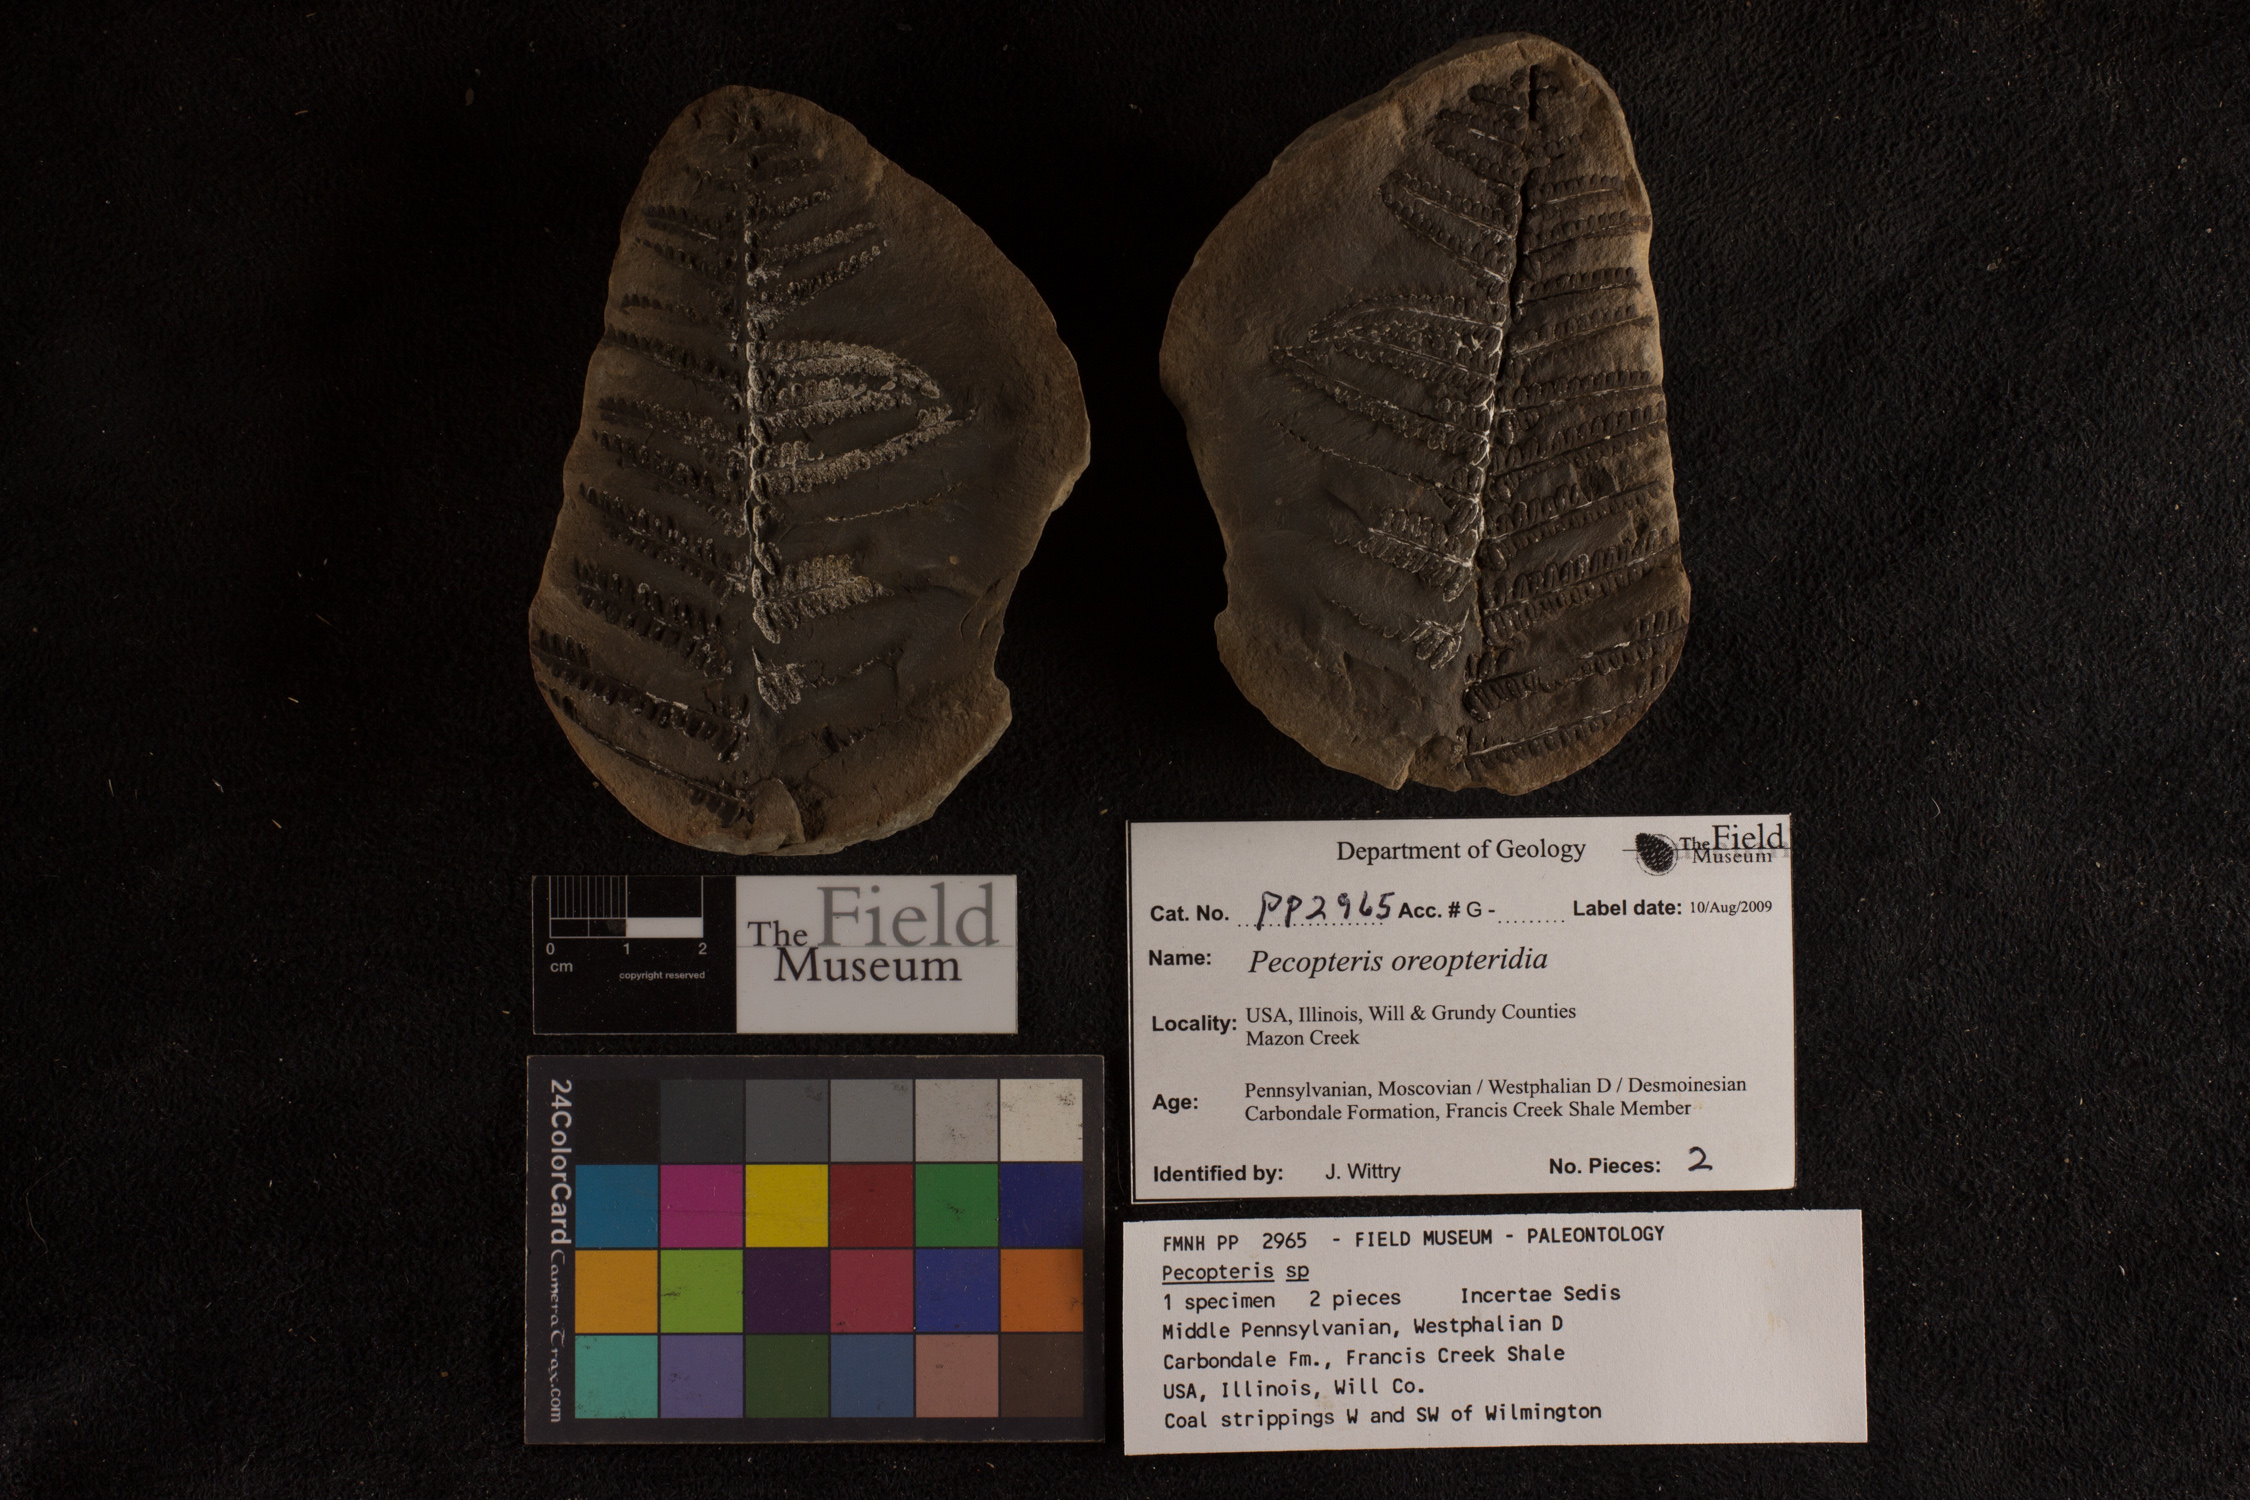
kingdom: Plantae
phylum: Tracheophyta
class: Polypodiopsida
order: Marattiales
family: Asterothecaceae
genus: Pecopteris
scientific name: Pecopteris
